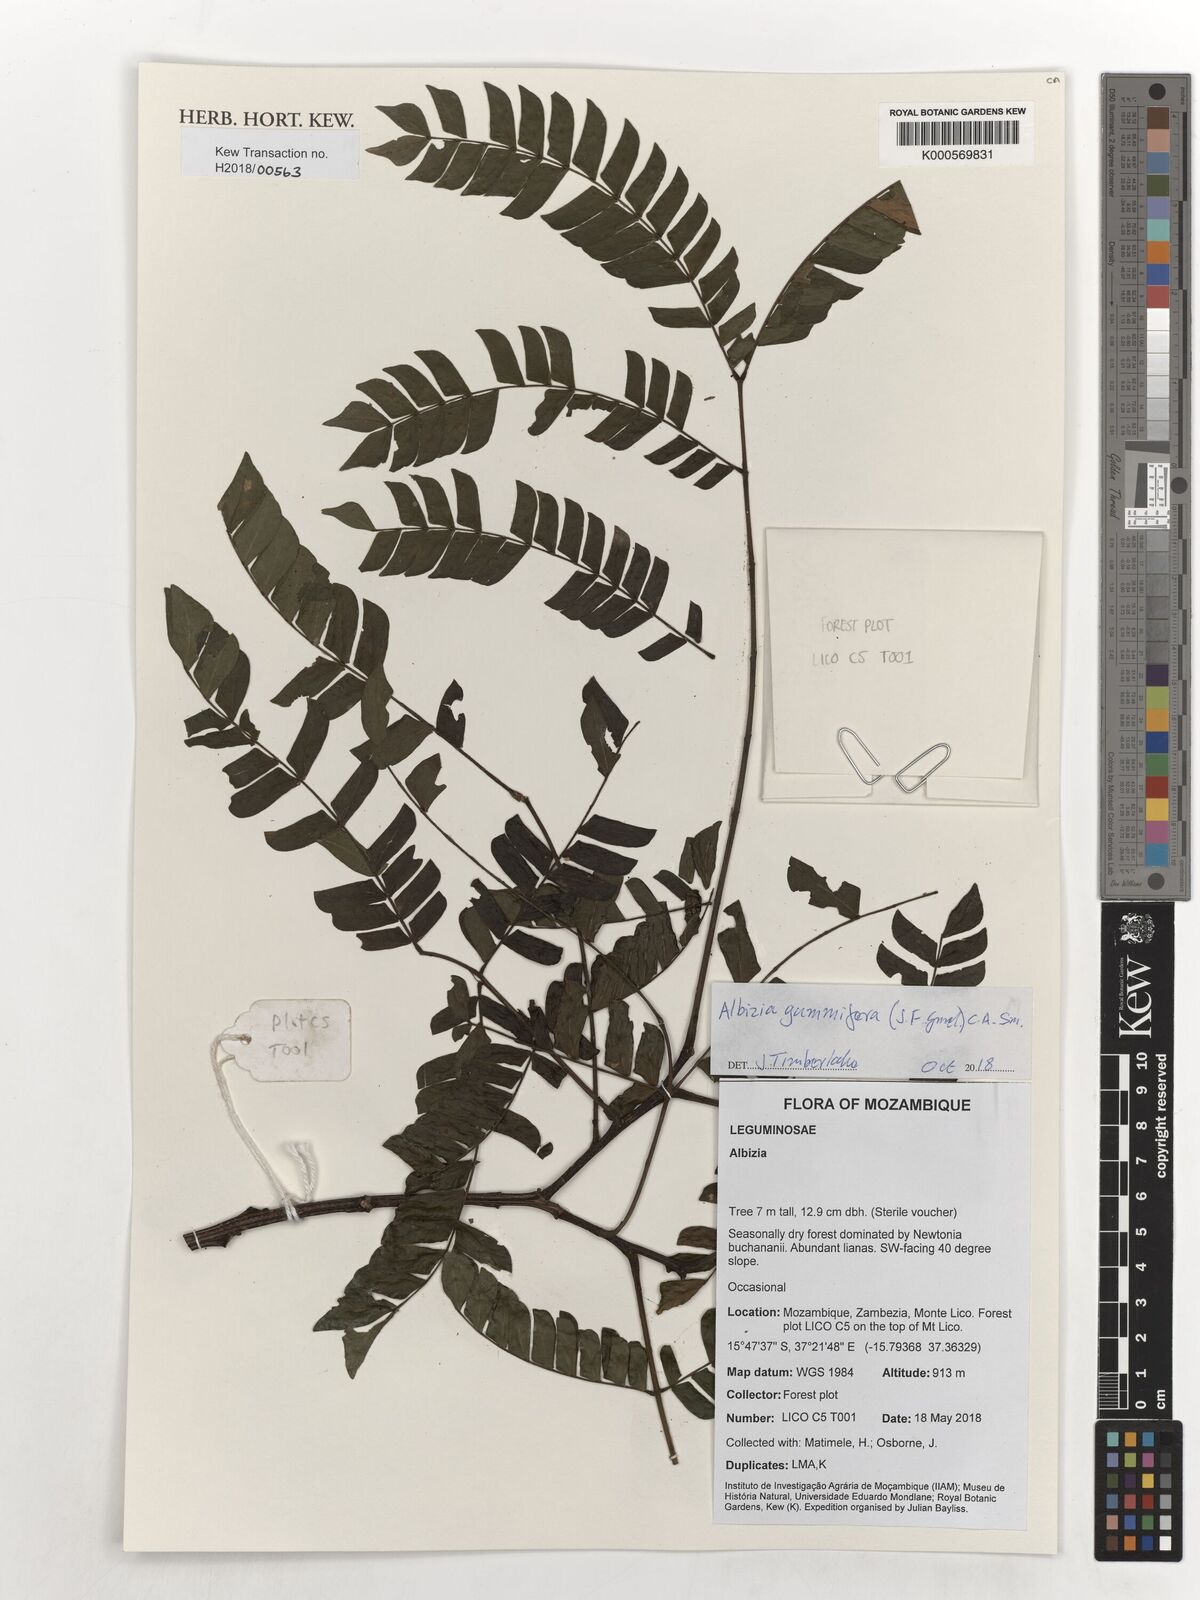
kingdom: Plantae
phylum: Tracheophyta
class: Magnoliopsida
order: Fabales
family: Fabaceae
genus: Albizia
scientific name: Albizia gummifera
